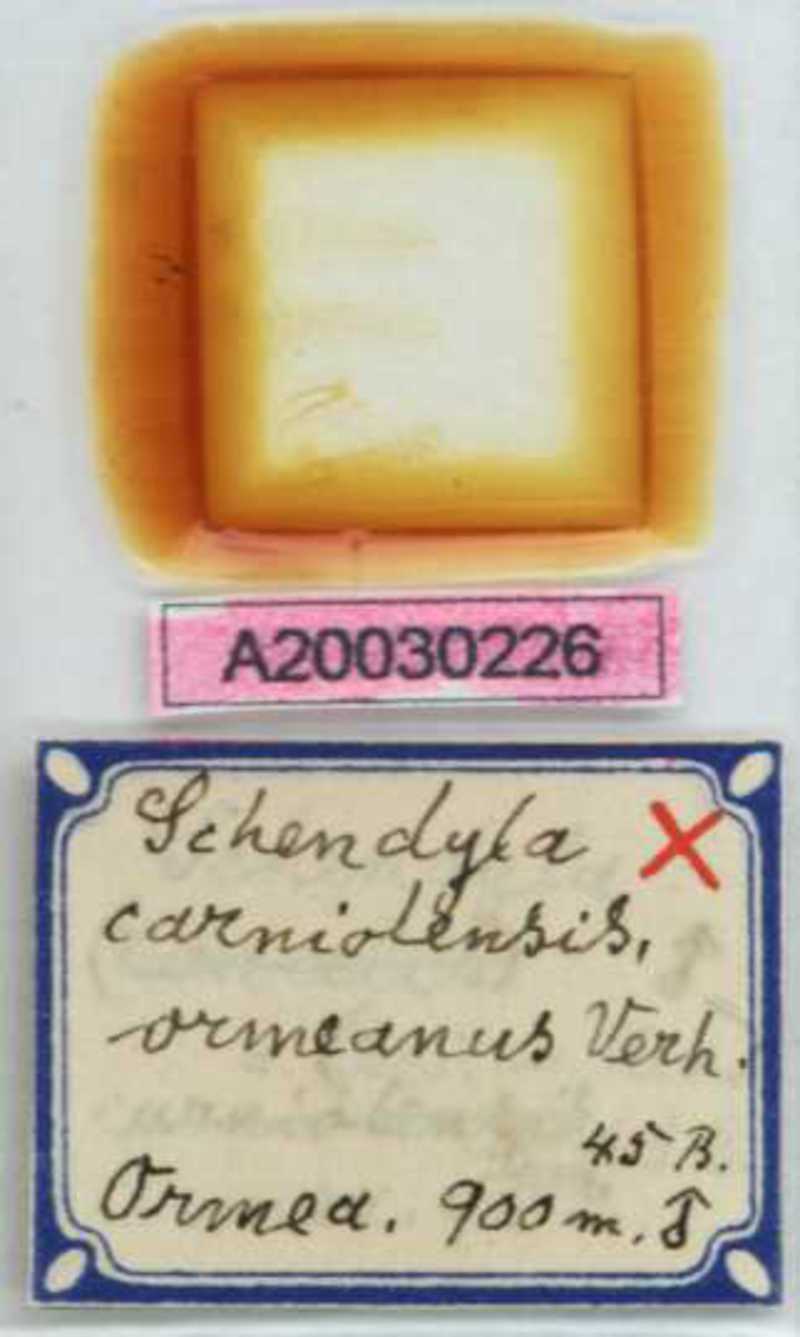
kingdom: Animalia
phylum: Arthropoda
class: Chilopoda
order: Geophilomorpha
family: Schendylidae
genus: Schendyla
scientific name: Schendyla carniolensis
